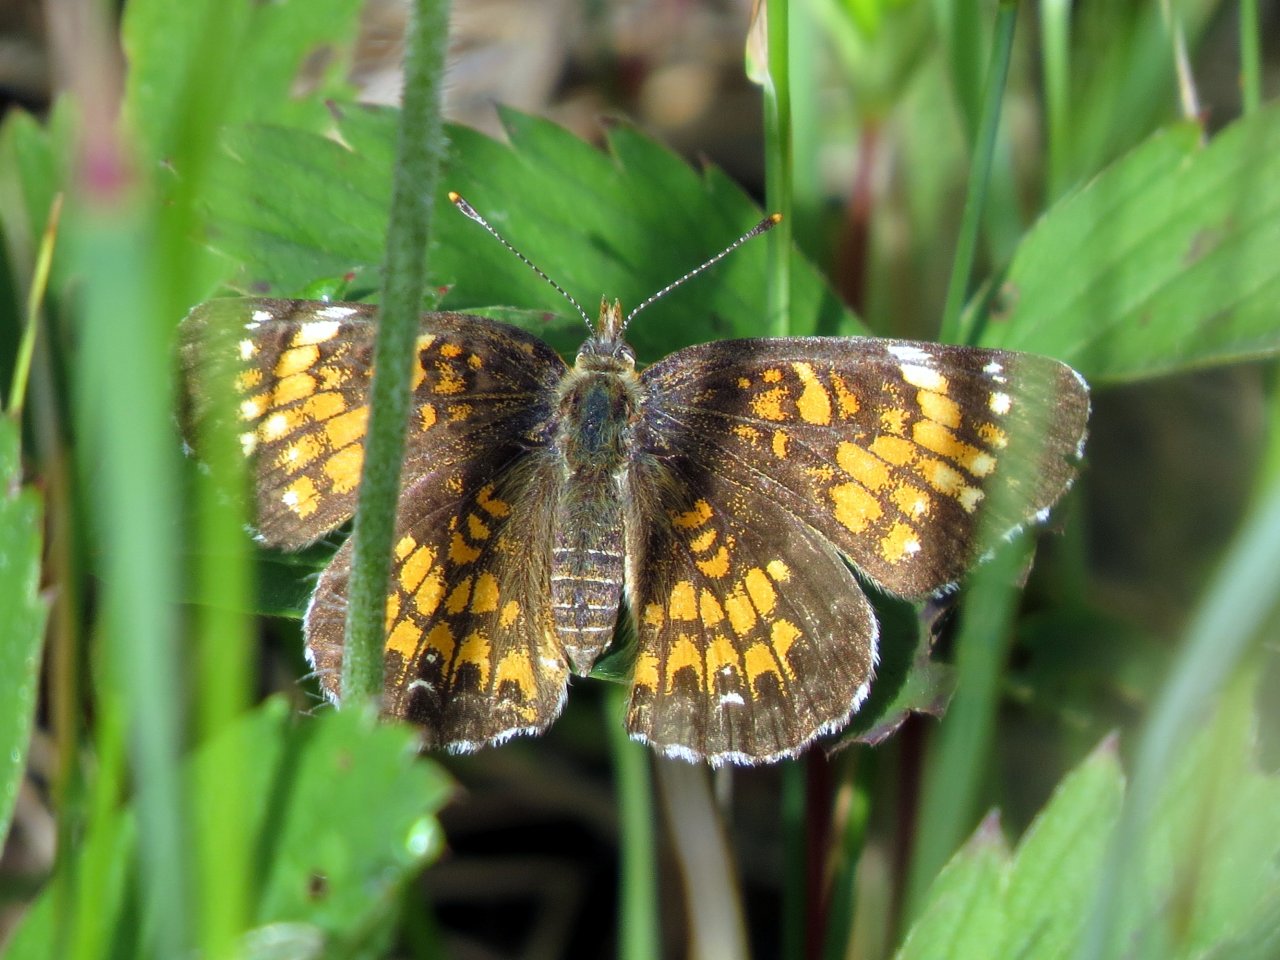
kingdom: Animalia
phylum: Arthropoda
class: Insecta
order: Lepidoptera
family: Nymphalidae
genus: Chlosyne
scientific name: Chlosyne harrisii
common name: Harris's Checkerspot
